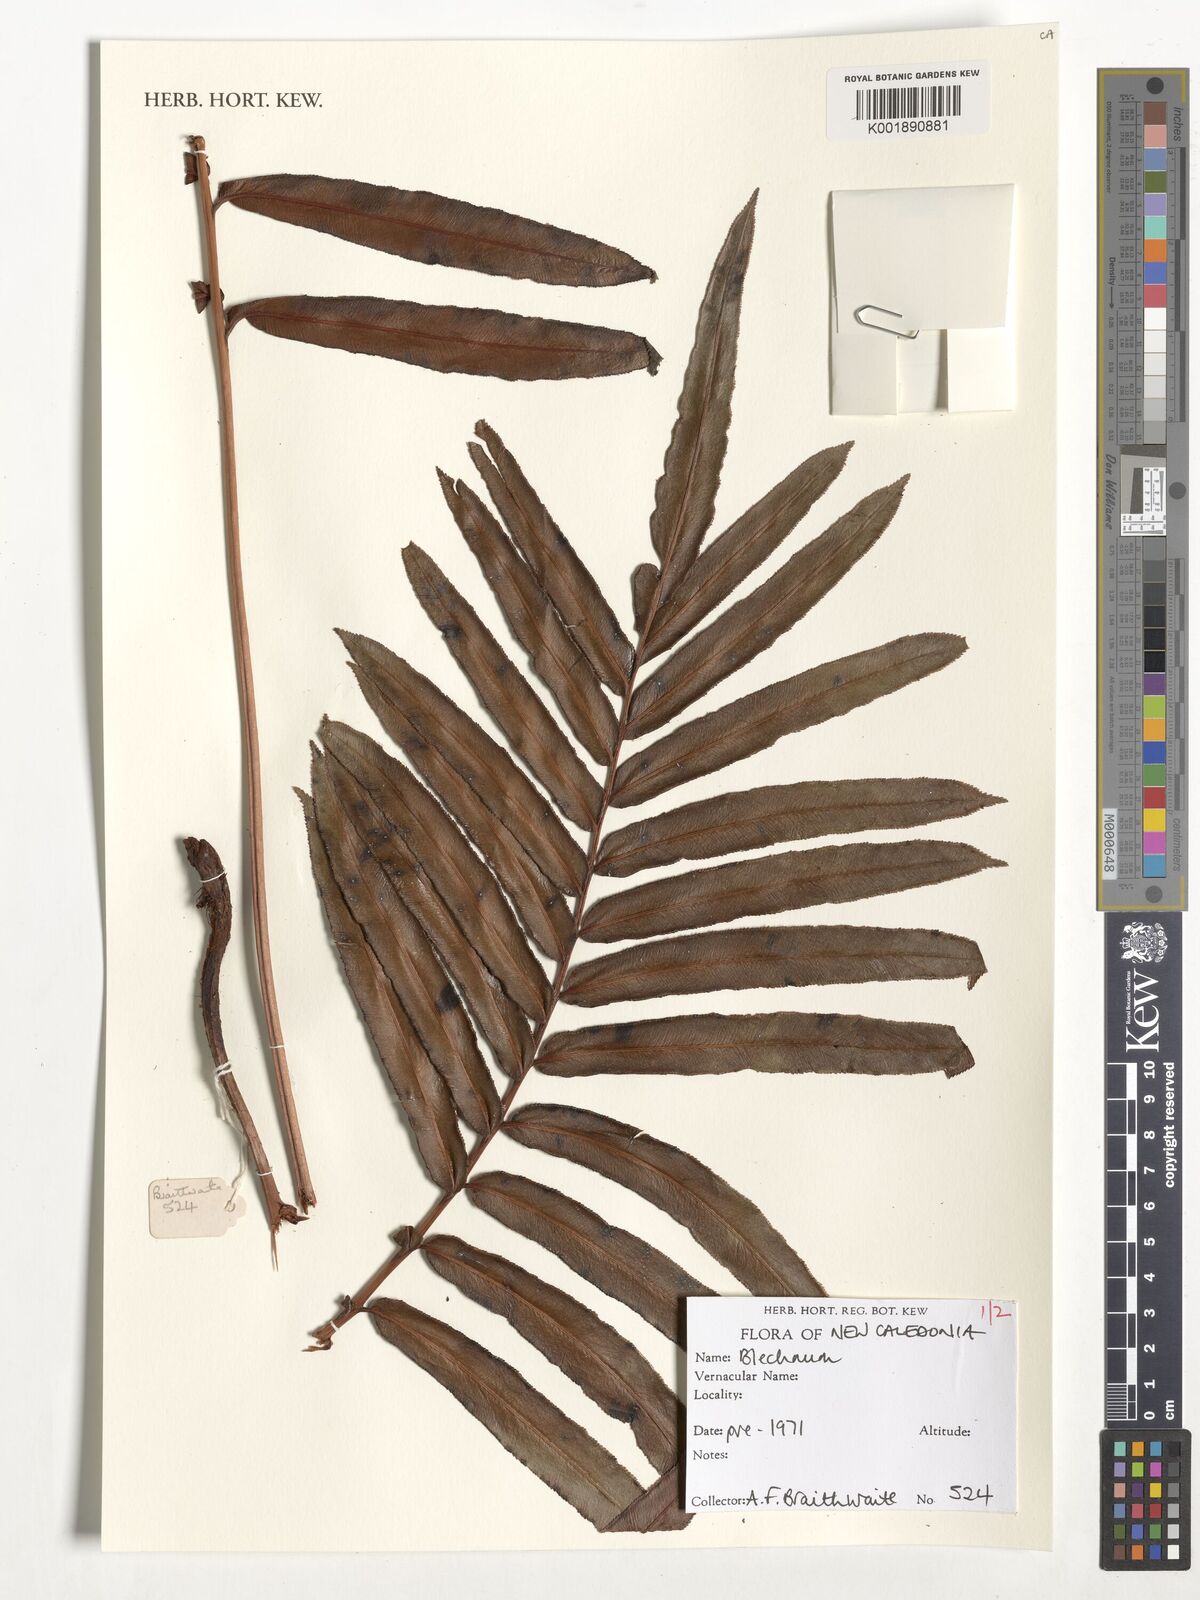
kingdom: Plantae
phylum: Tracheophyta
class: Polypodiopsida
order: Polypodiales
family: Blechnaceae
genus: Blechnum
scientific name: Blechnum
